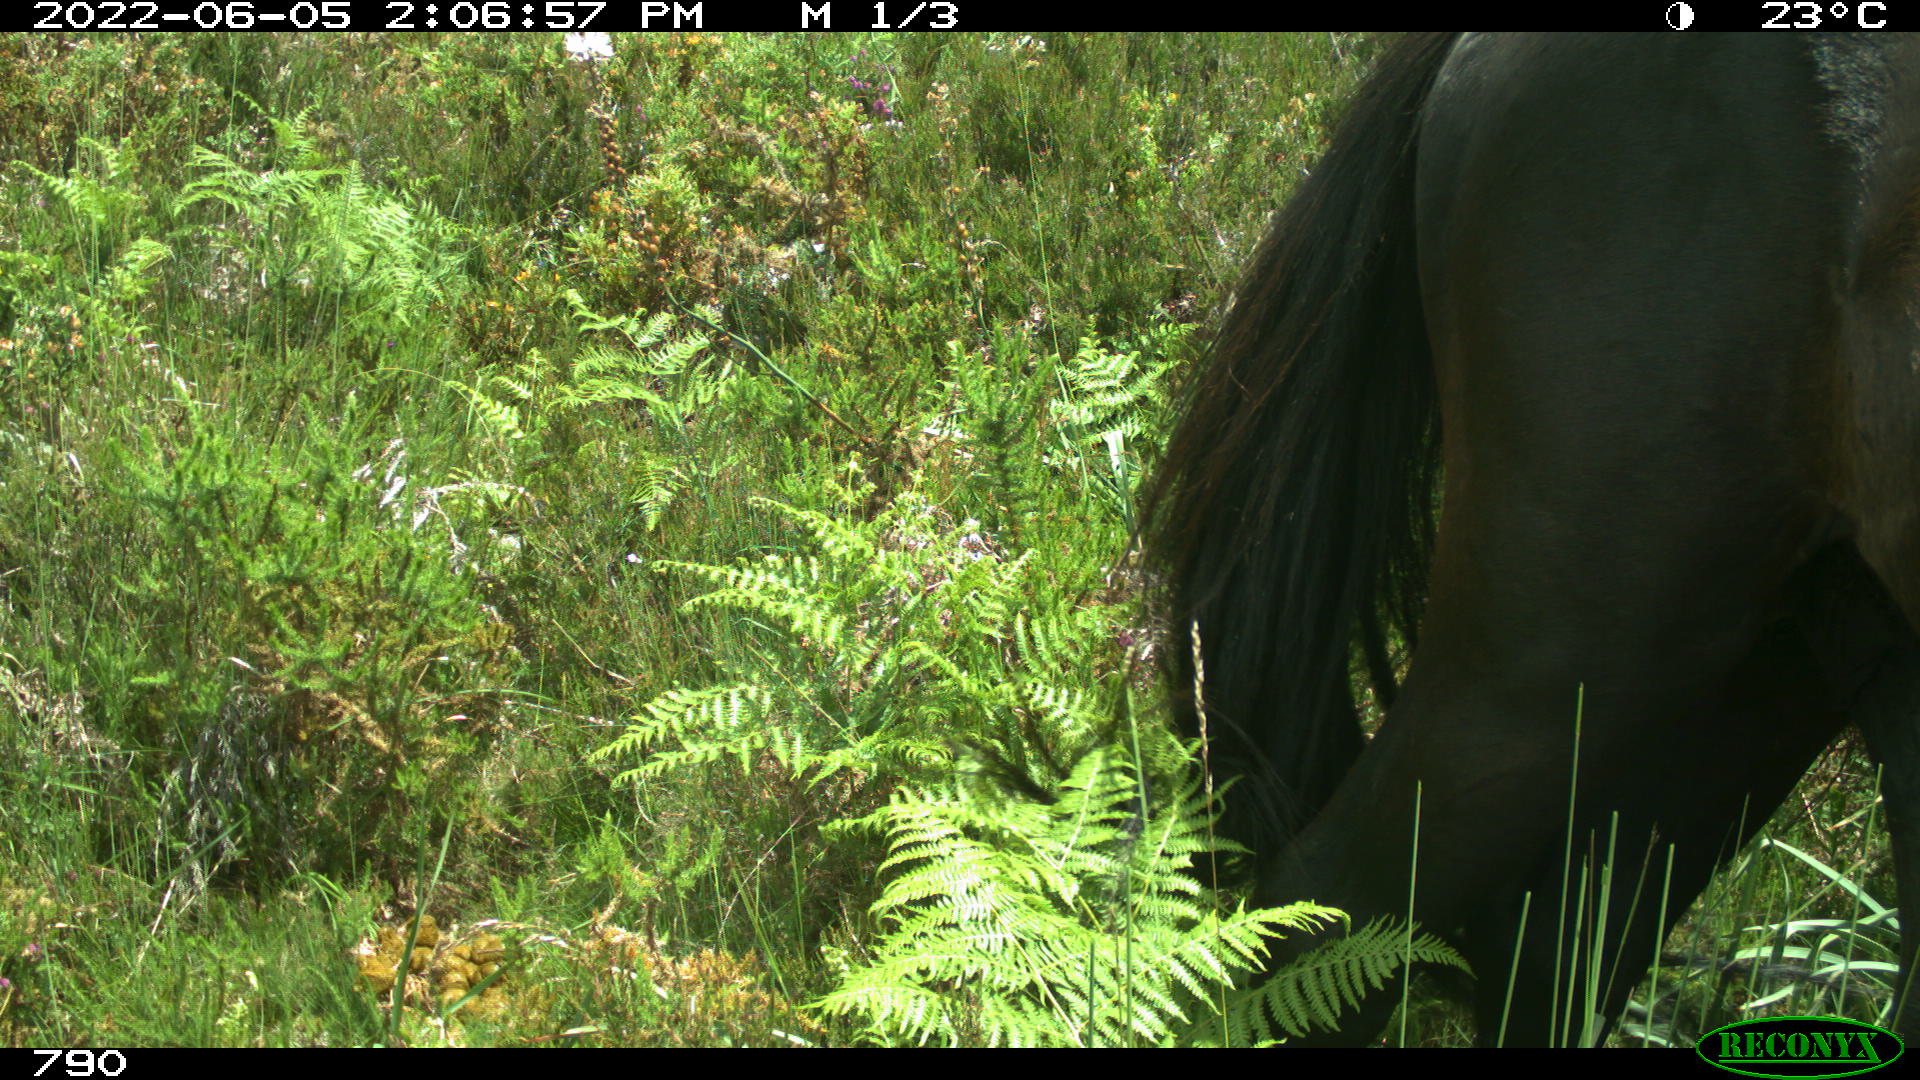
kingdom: Animalia
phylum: Chordata
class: Mammalia
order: Perissodactyla
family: Equidae
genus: Equus
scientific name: Equus caballus
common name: Horse
